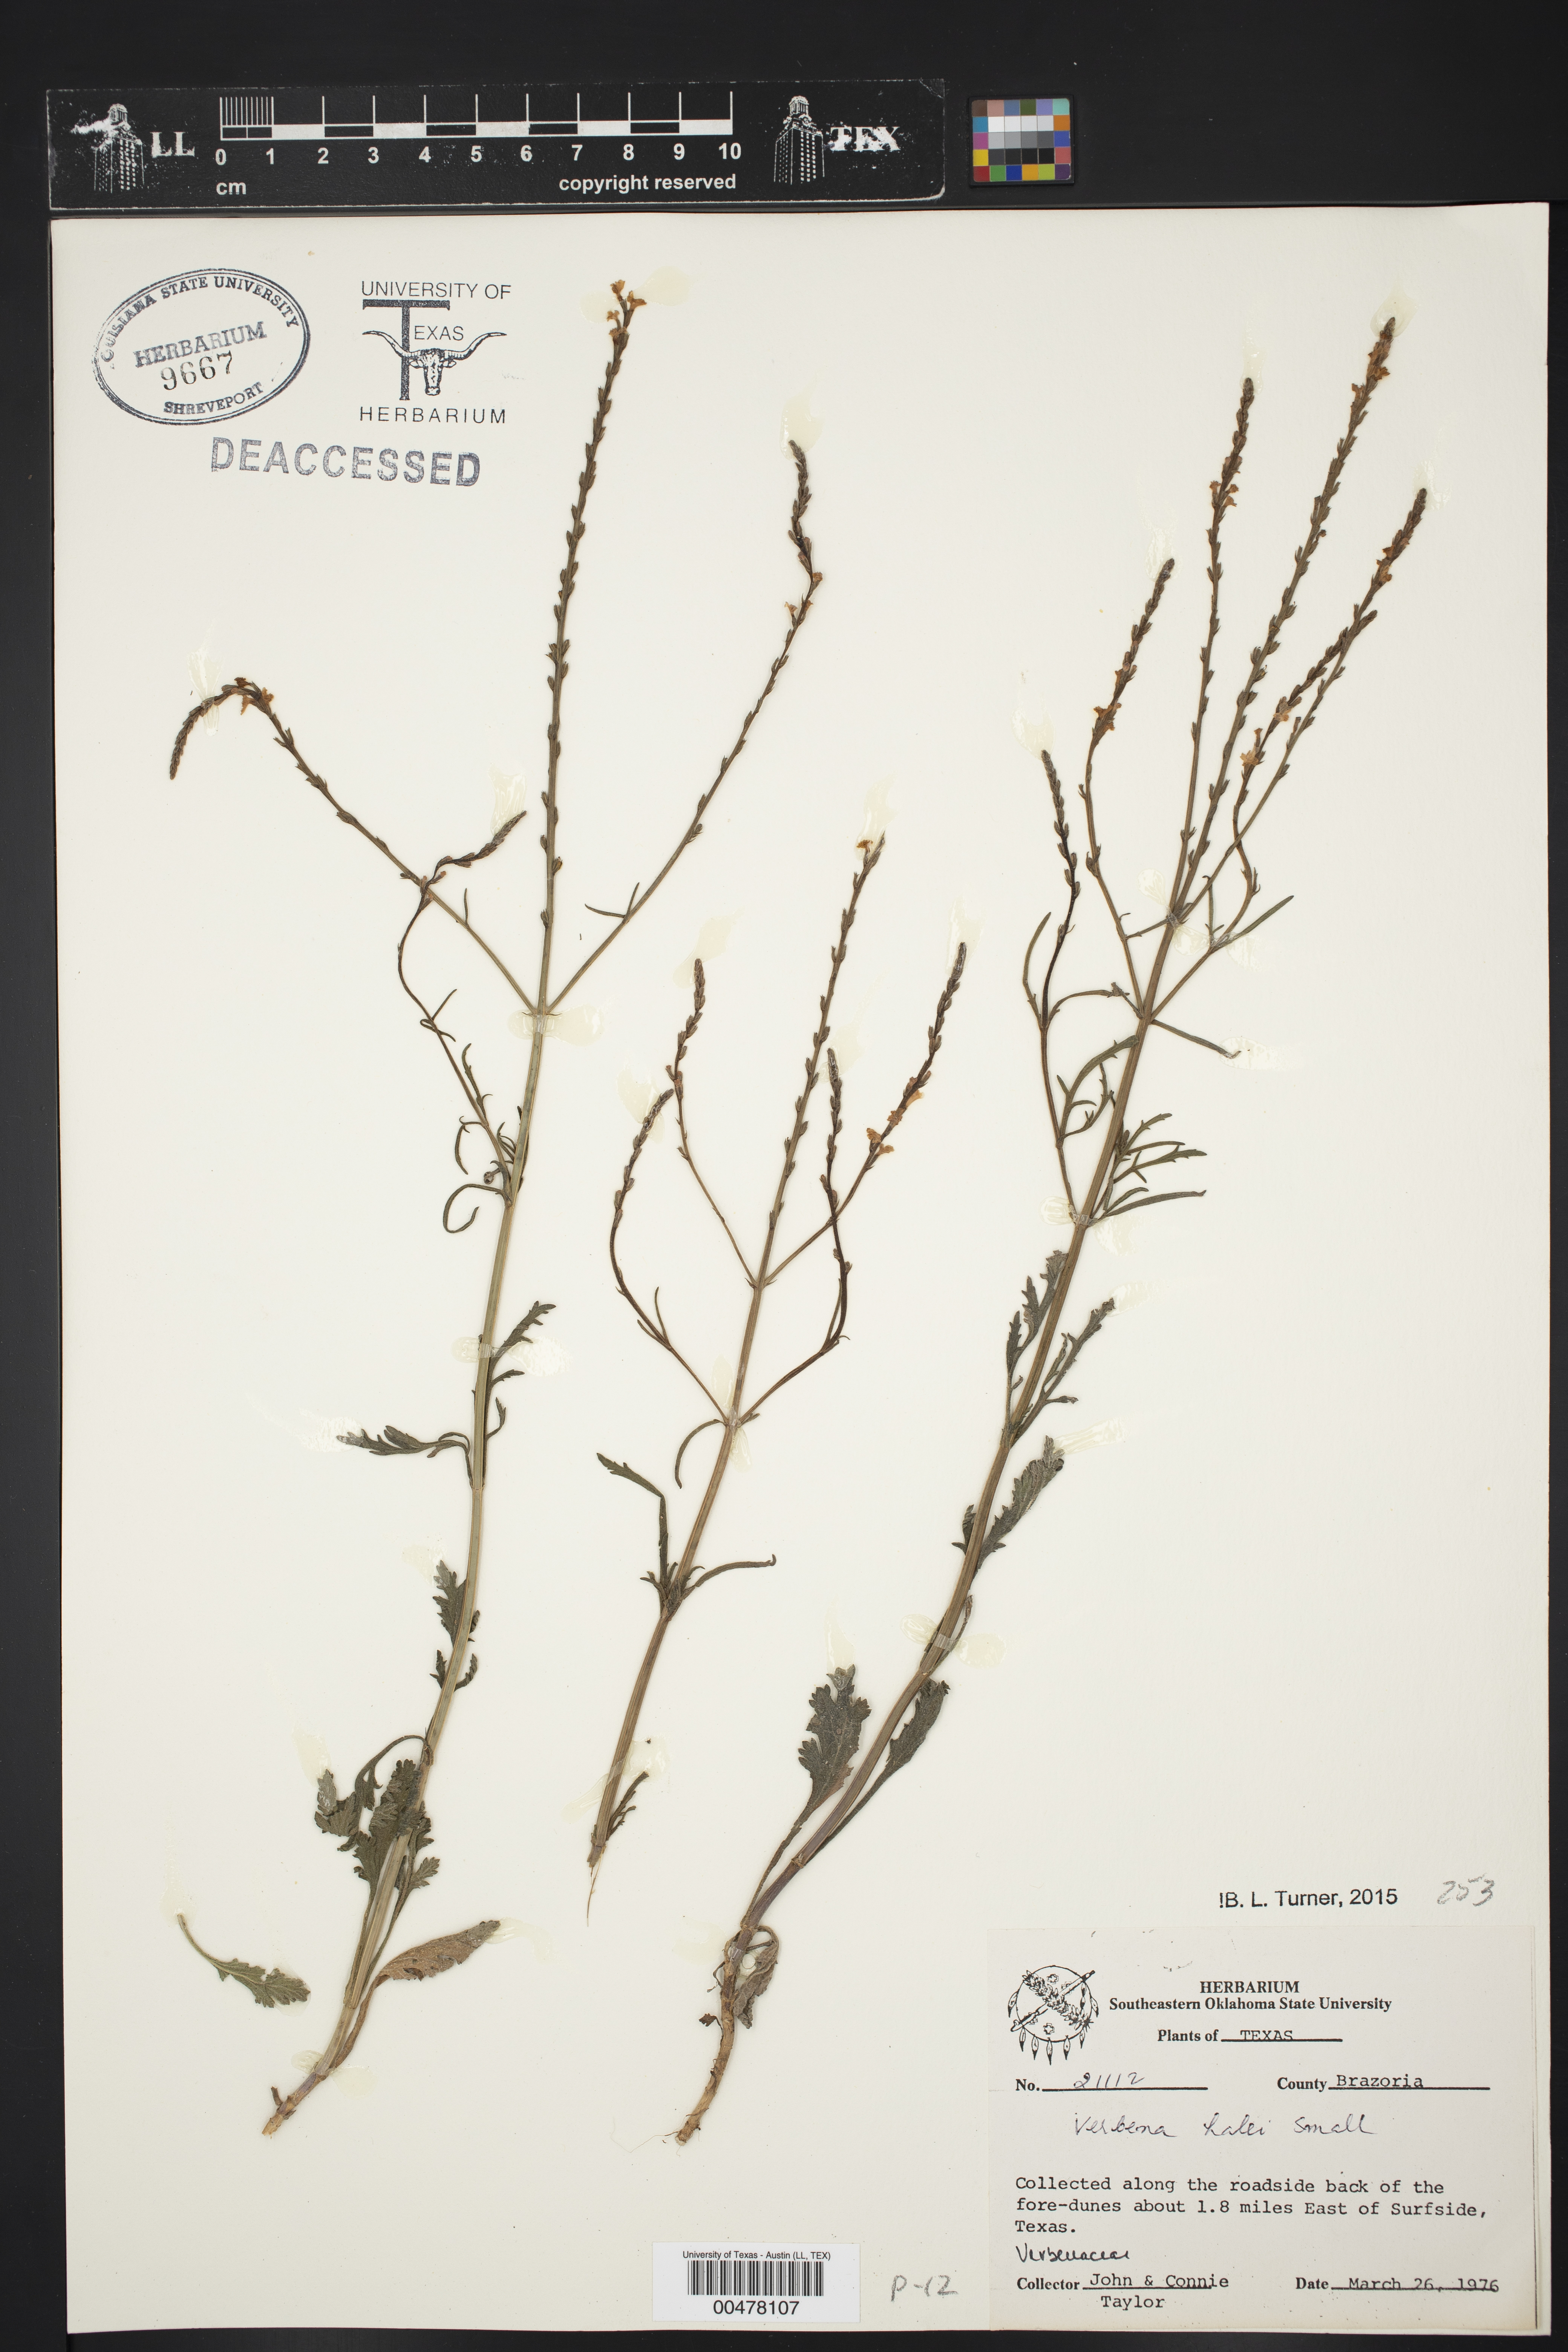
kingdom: Plantae
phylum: Tracheophyta
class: Magnoliopsida
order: Lamiales
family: Verbenaceae
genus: Verbena
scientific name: Verbena halei
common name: Texas vervain
